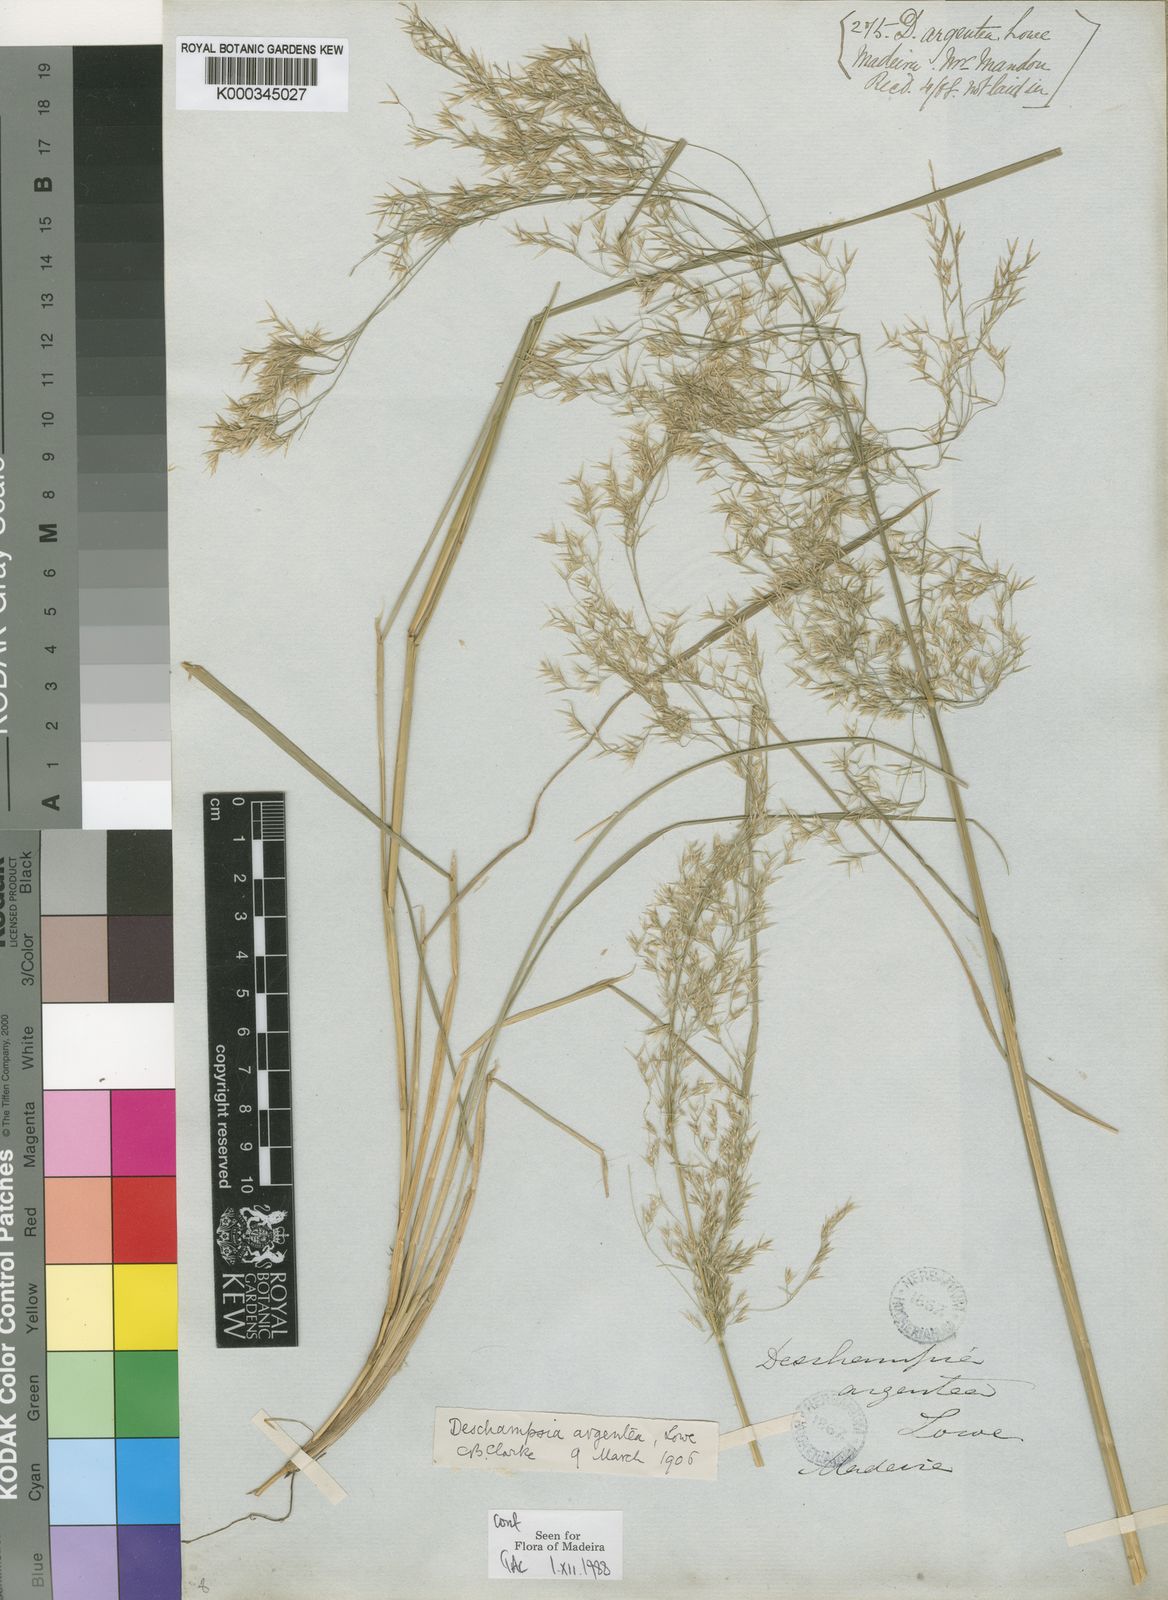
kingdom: Plantae
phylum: Tracheophyta
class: Liliopsida
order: Poales
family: Poaceae
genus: Deschampsia
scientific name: Deschampsia argentea
